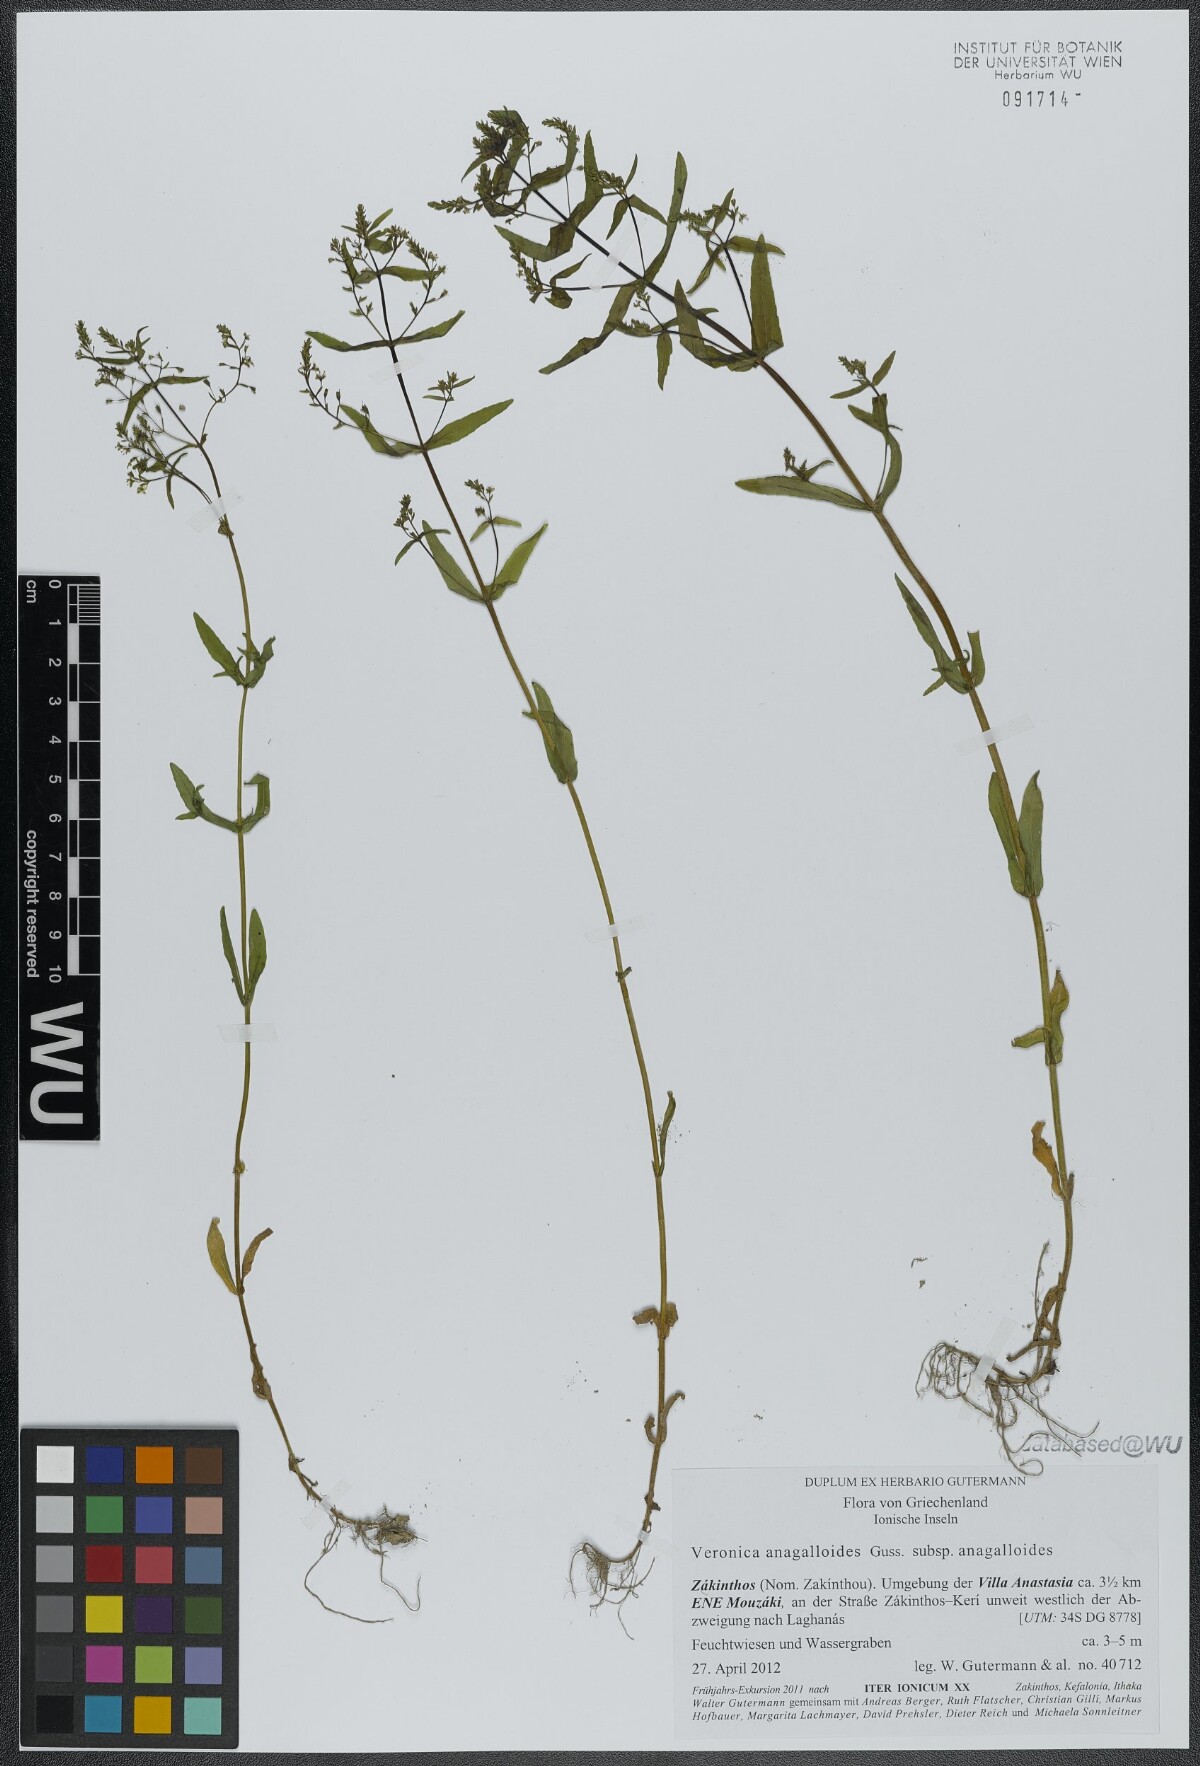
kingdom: Plantae
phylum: Tracheophyta
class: Magnoliopsida
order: Lamiales
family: Plantaginaceae
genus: Veronica
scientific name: Veronica anagalloides
